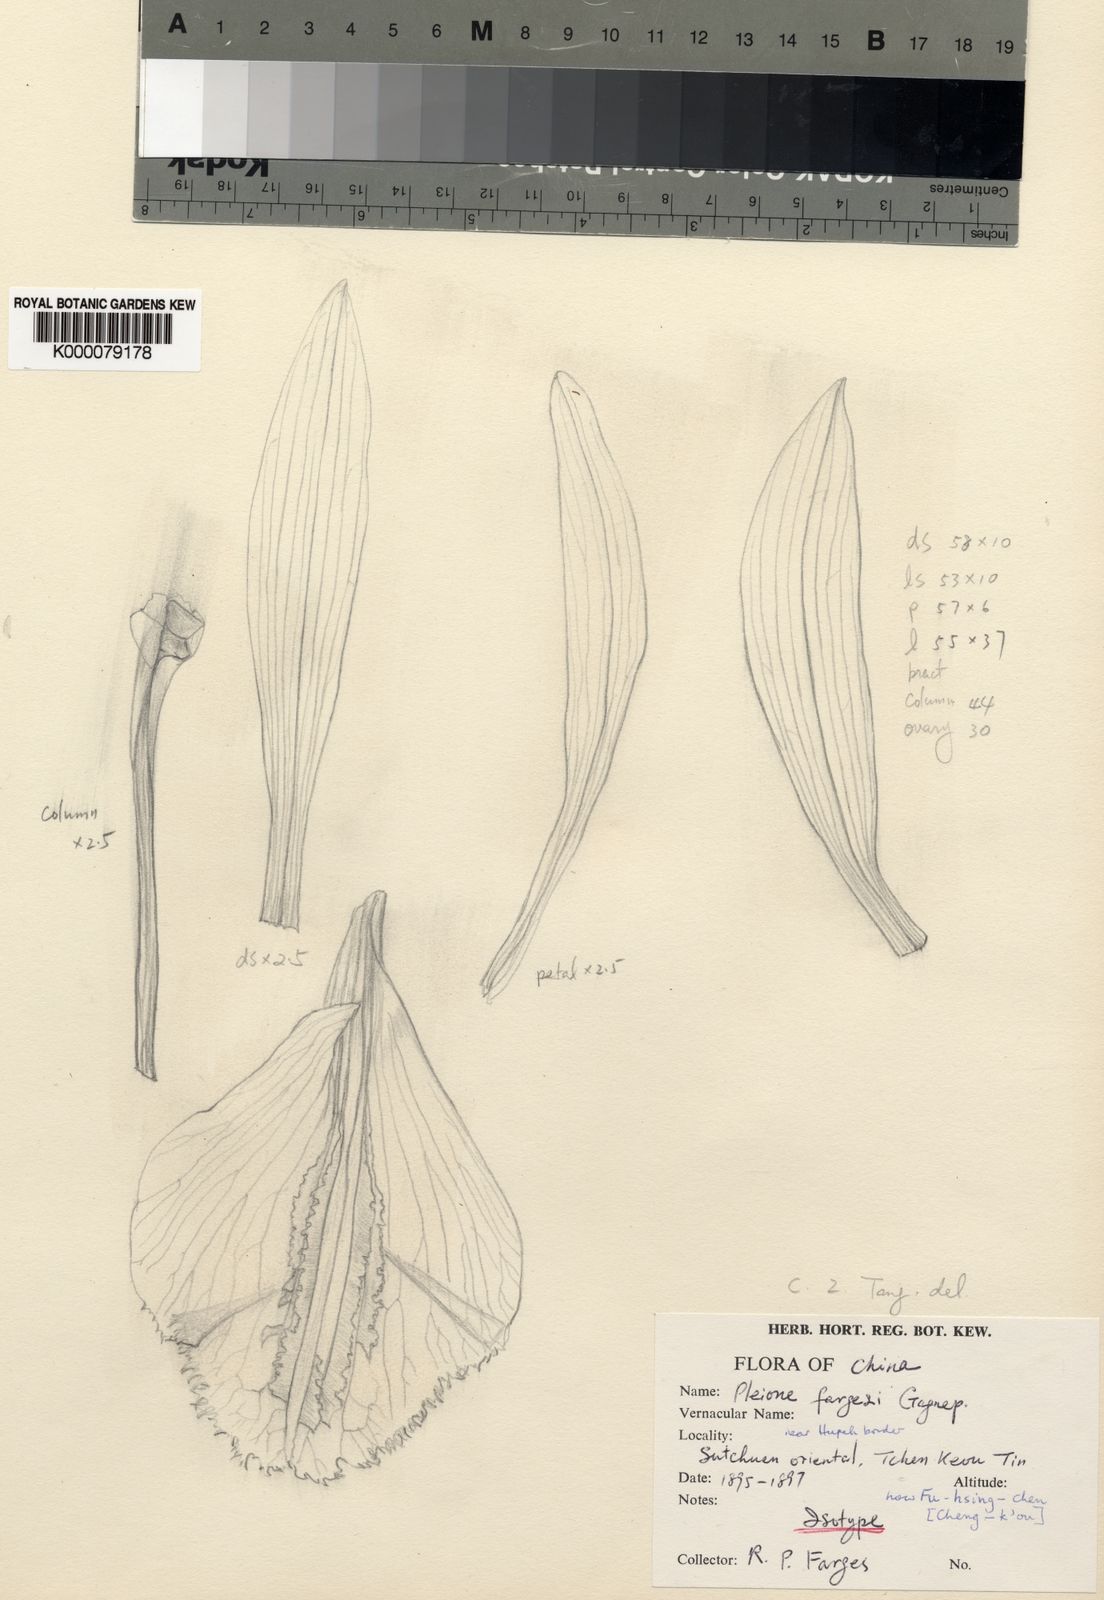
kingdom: Plantae
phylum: Tracheophyta
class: Liliopsida
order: Asparagales
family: Orchidaceae
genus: Pleione
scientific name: Pleione bulbocodioides
